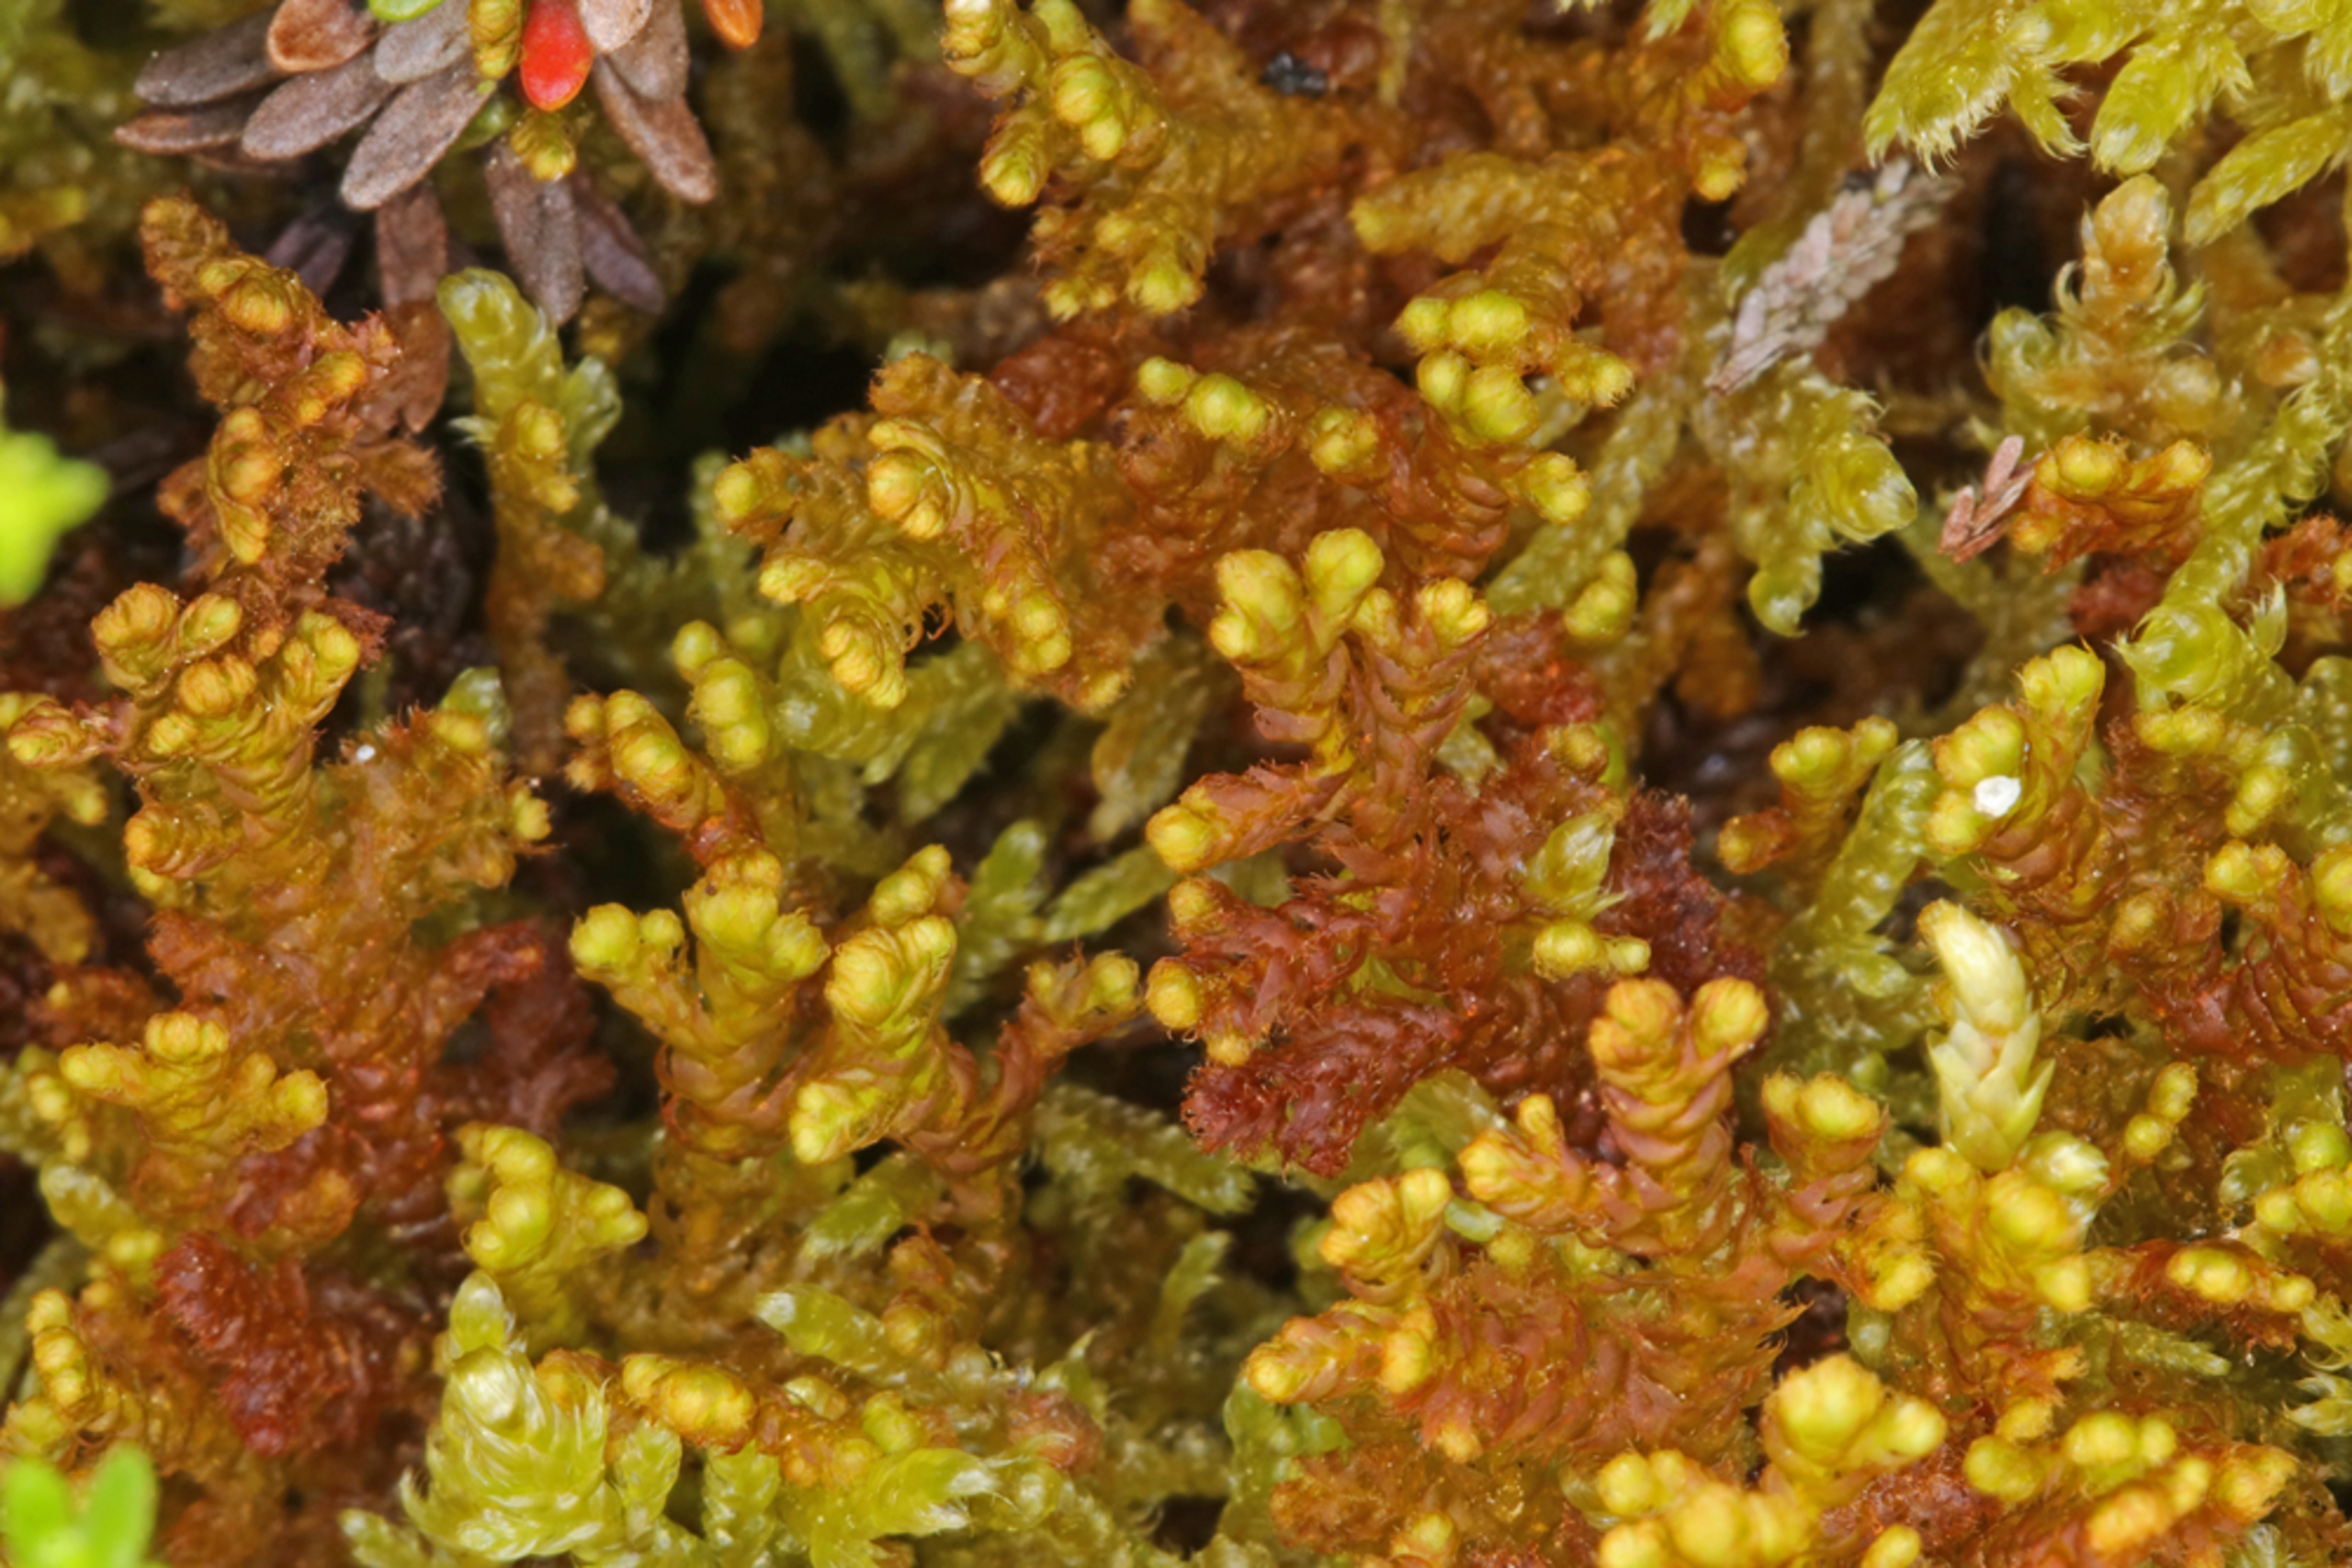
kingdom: Plantae
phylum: Marchantiophyta
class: Jungermanniopsida
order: Ptilidiales
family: Ptilidiaceae
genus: Ptilidium
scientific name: Ptilidium ciliare
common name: Almindelig frynsemos
